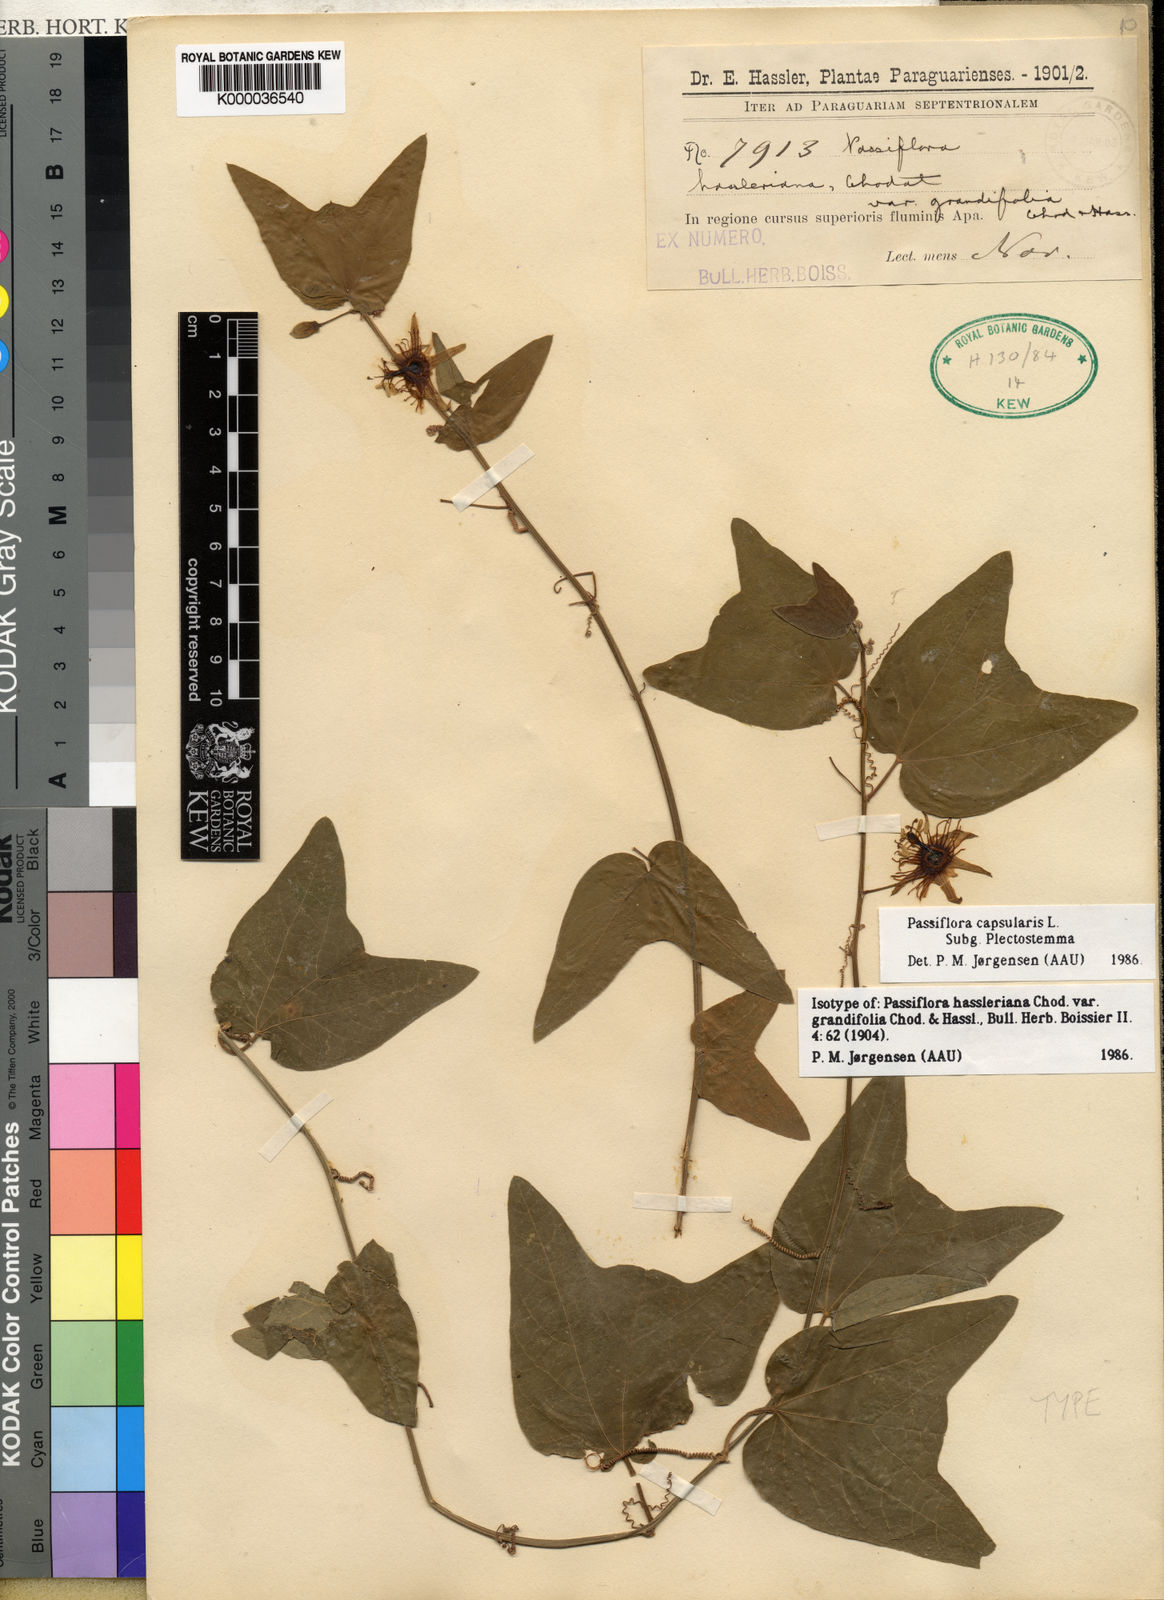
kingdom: Plantae
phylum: Tracheophyta
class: Magnoliopsida
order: Malpighiales
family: Passifloraceae
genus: Passiflora
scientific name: Passiflora capsularis
